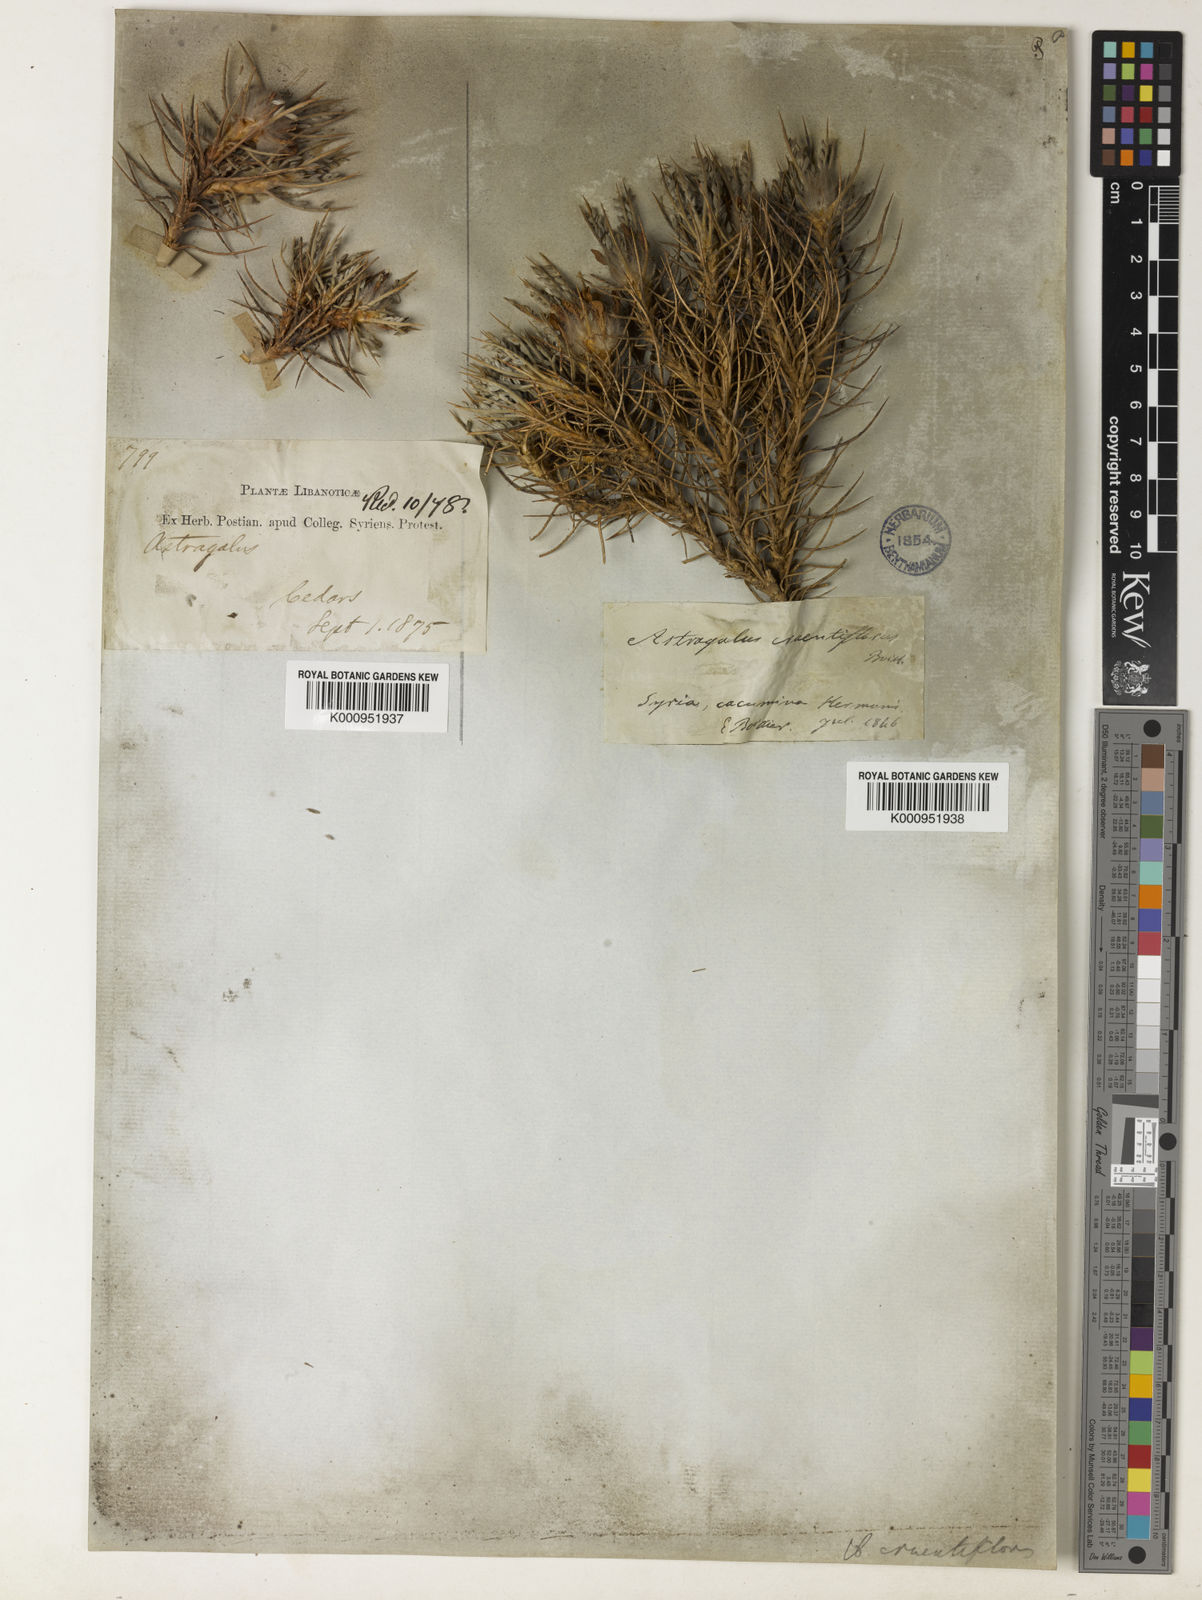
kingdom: Plantae
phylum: Tracheophyta
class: Magnoliopsida
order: Fabales
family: Fabaceae
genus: Astragalus
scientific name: Astragalus cruentiflorus
